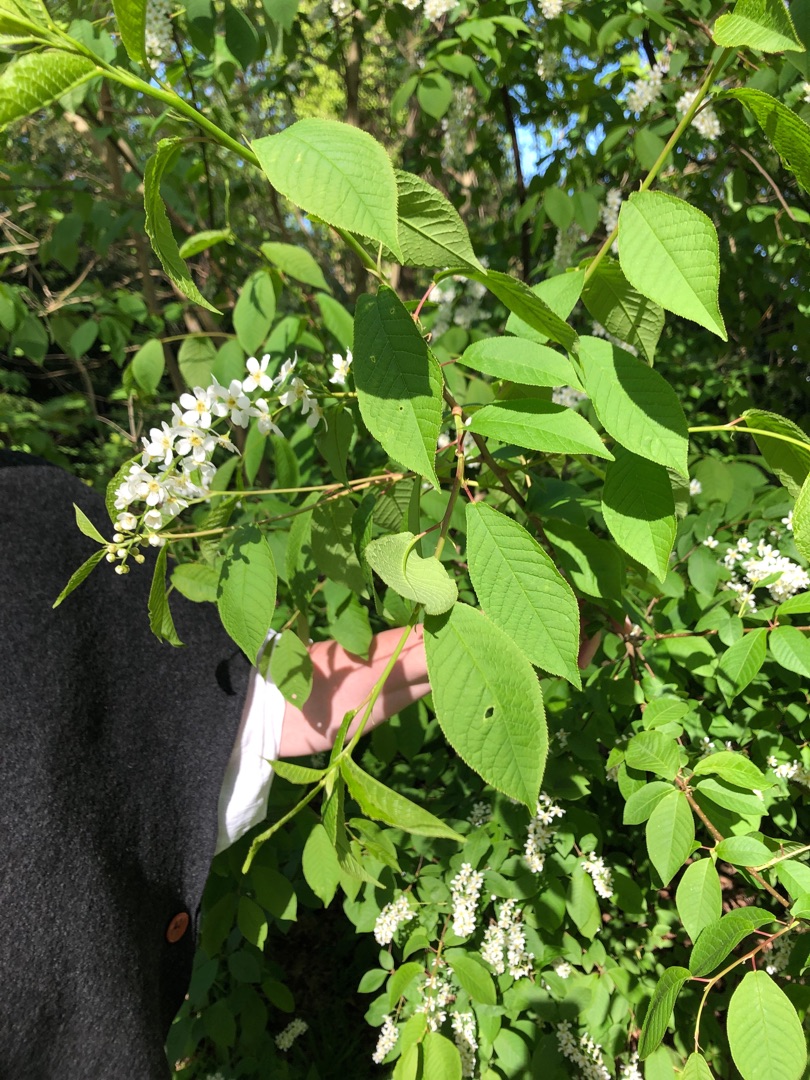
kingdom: Plantae
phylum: Tracheophyta
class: Magnoliopsida
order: Rosales
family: Rosaceae
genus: Prunus
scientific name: Prunus padus
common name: Almindelig hæg
